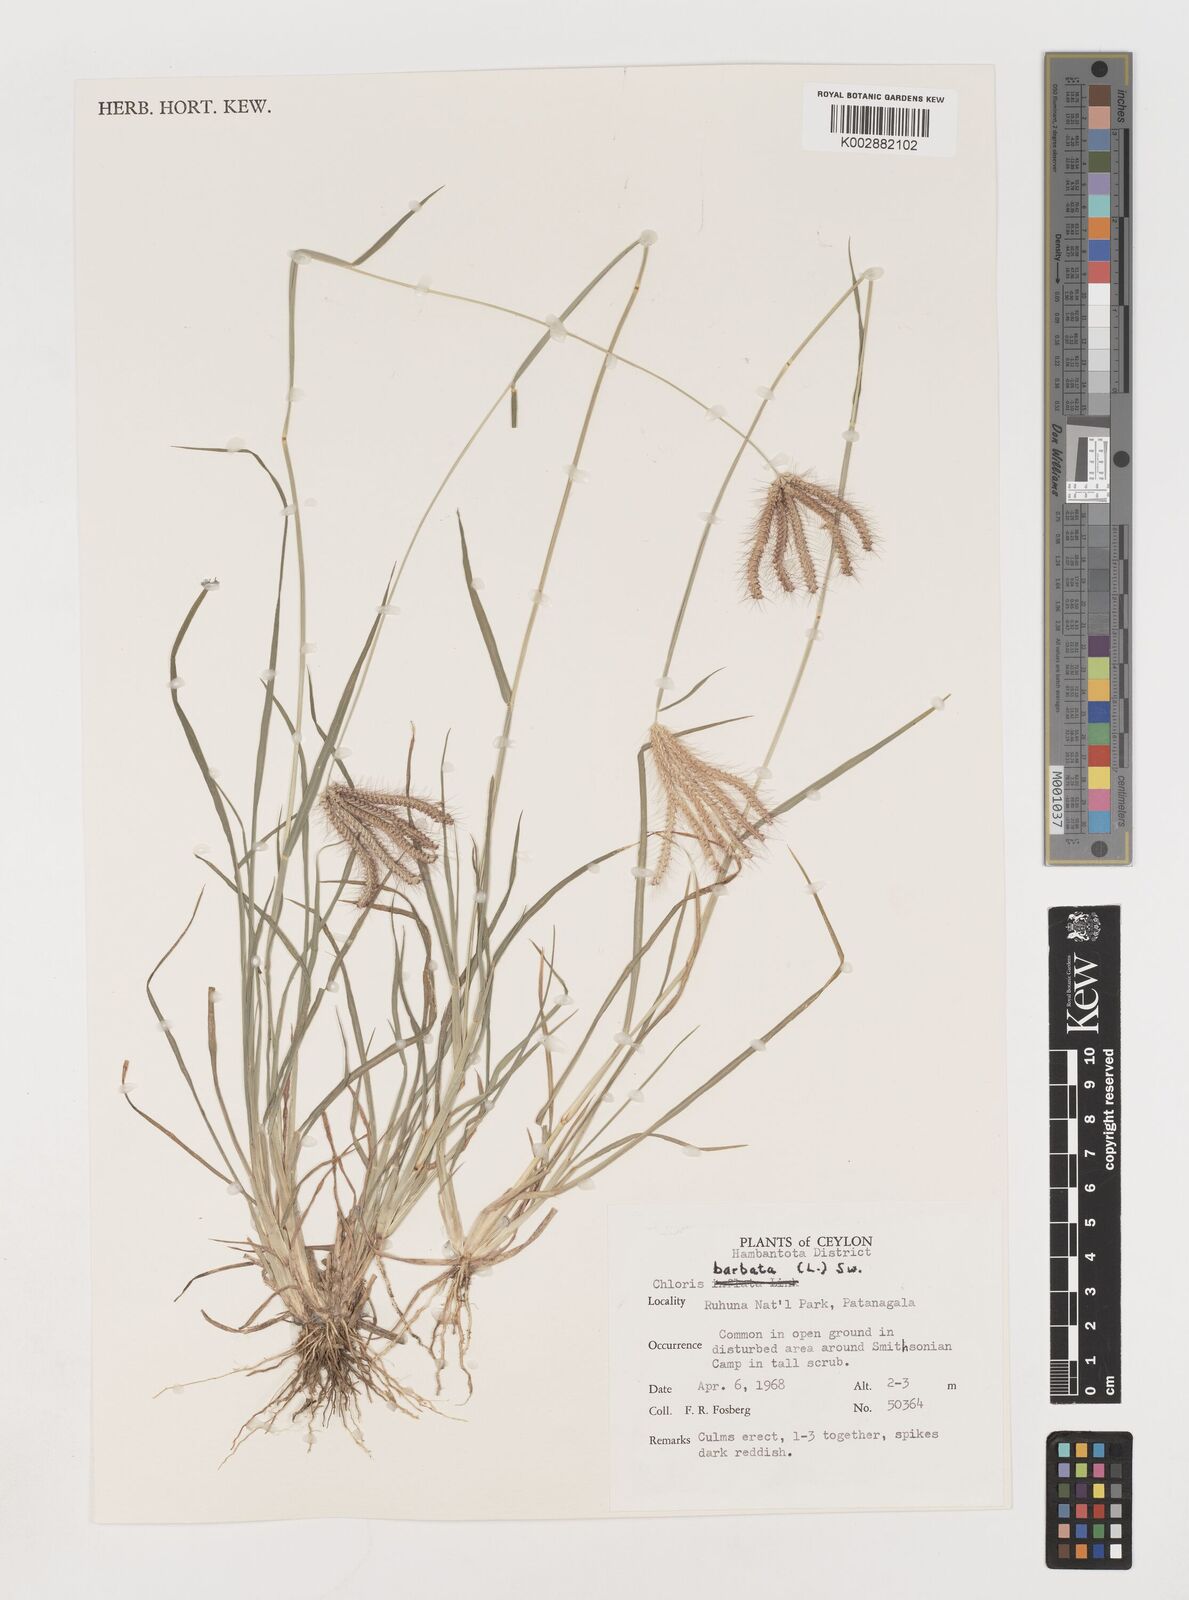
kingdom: Plantae
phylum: Tracheophyta
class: Liliopsida
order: Poales
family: Poaceae
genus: Chloris
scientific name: Chloris barbata
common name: Swollen fingergrass
